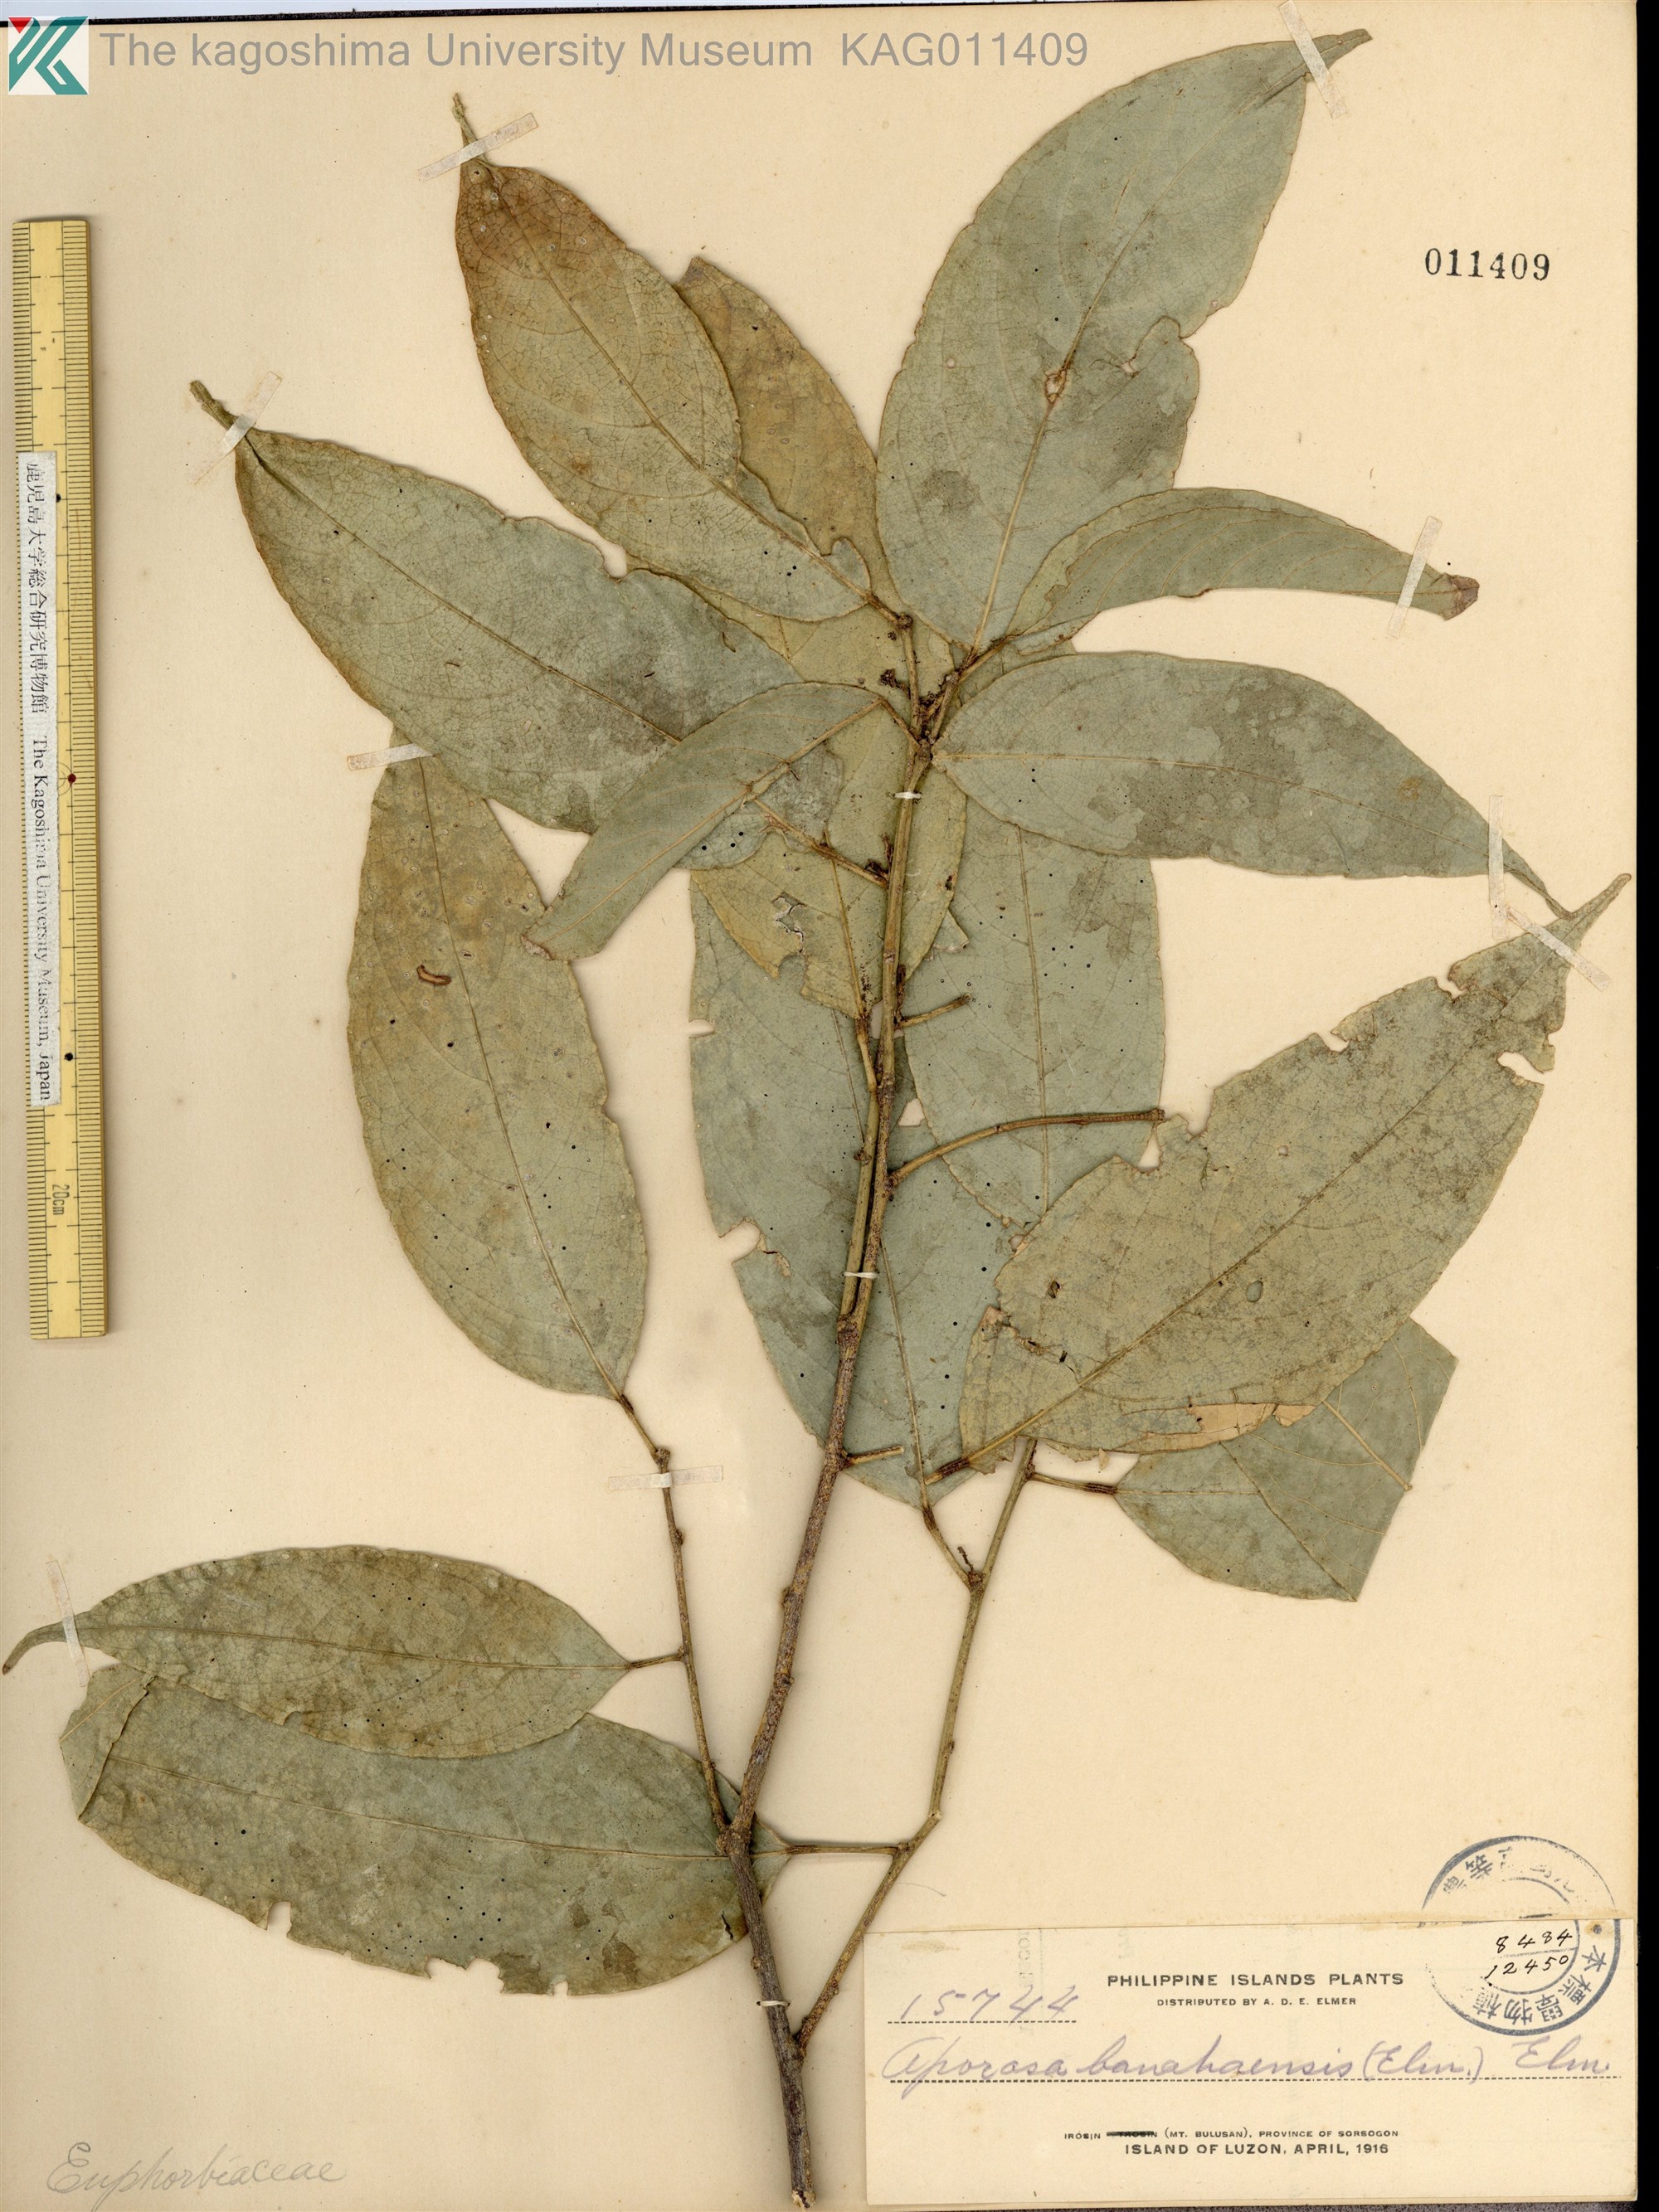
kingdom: Plantae
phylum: Tracheophyta
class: Magnoliopsida
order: Malpighiales
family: Phyllanthaceae
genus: Aporosa
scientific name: Aporosa banahaensis
